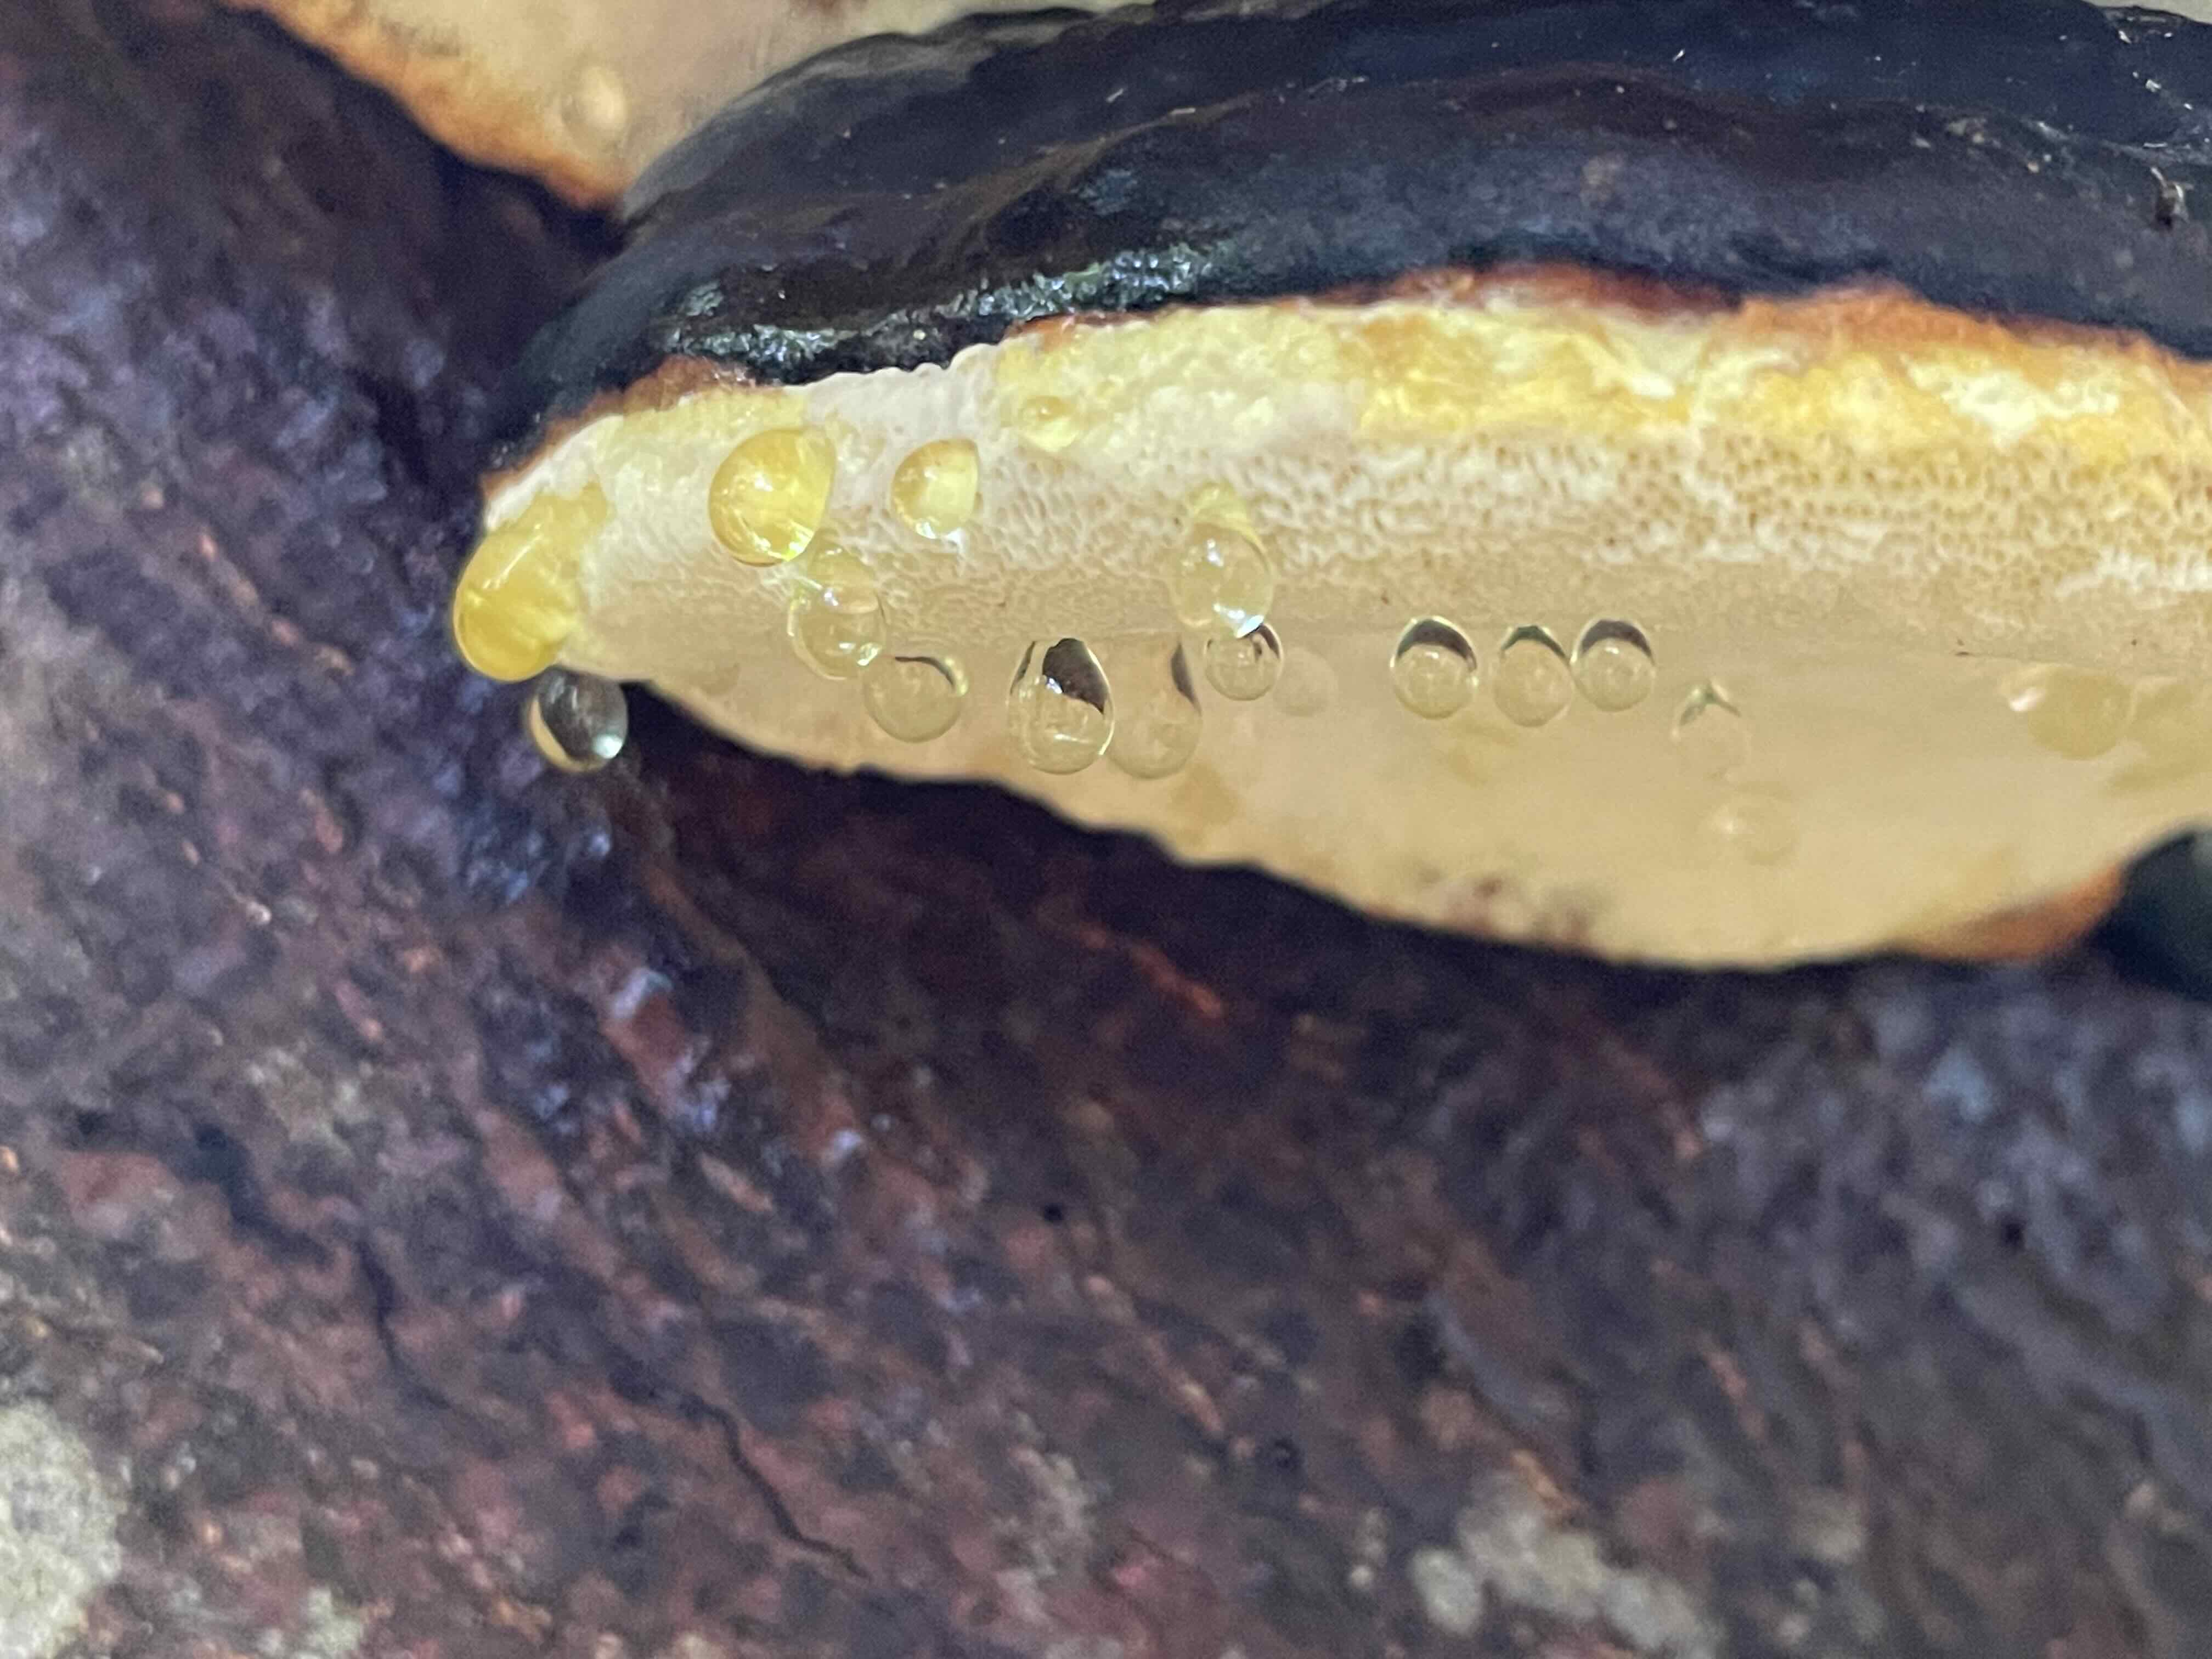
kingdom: Fungi
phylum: Basidiomycota
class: Agaricomycetes
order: Polyporales
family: Fomitopsidaceae
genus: Fomitopsis
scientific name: Fomitopsis pinicola
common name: randbæltet hovporesvamp
